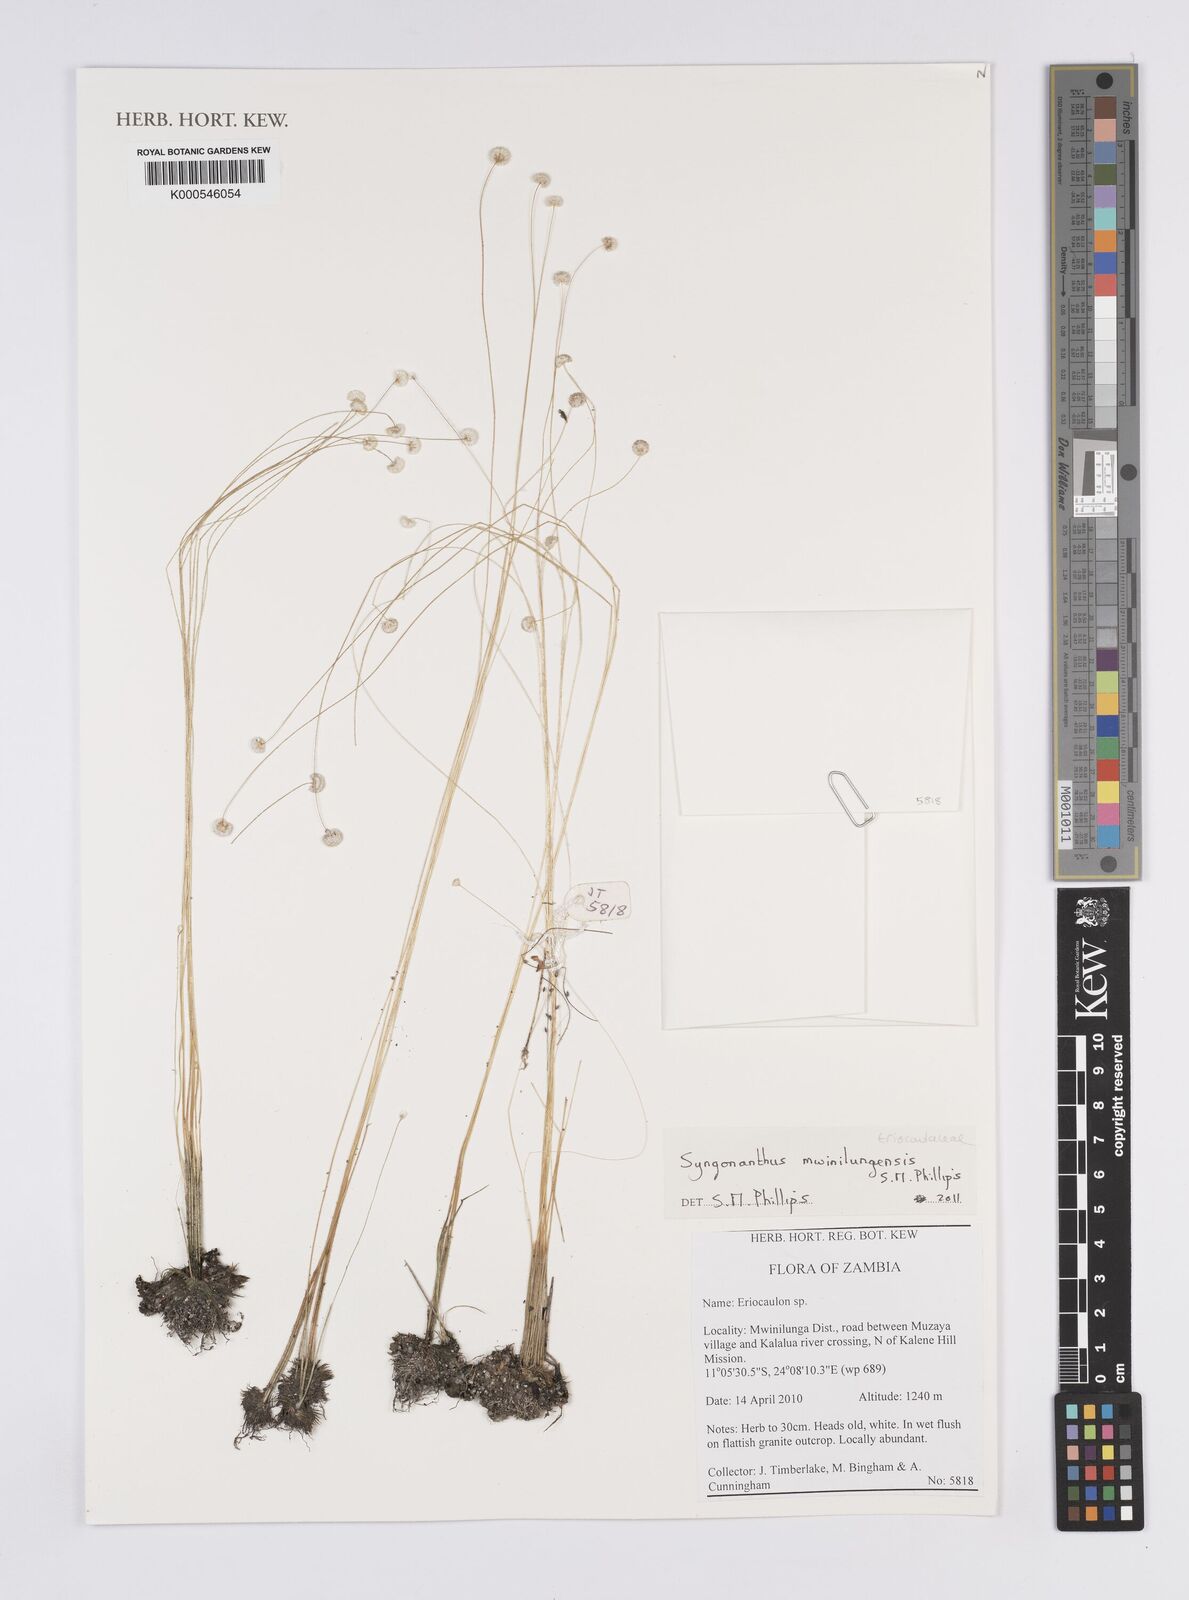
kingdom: Plantae
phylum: Tracheophyta
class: Liliopsida
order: Poales
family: Eriocaulaceae
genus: Syngonanthus
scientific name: Syngonanthus mwinilungensis
